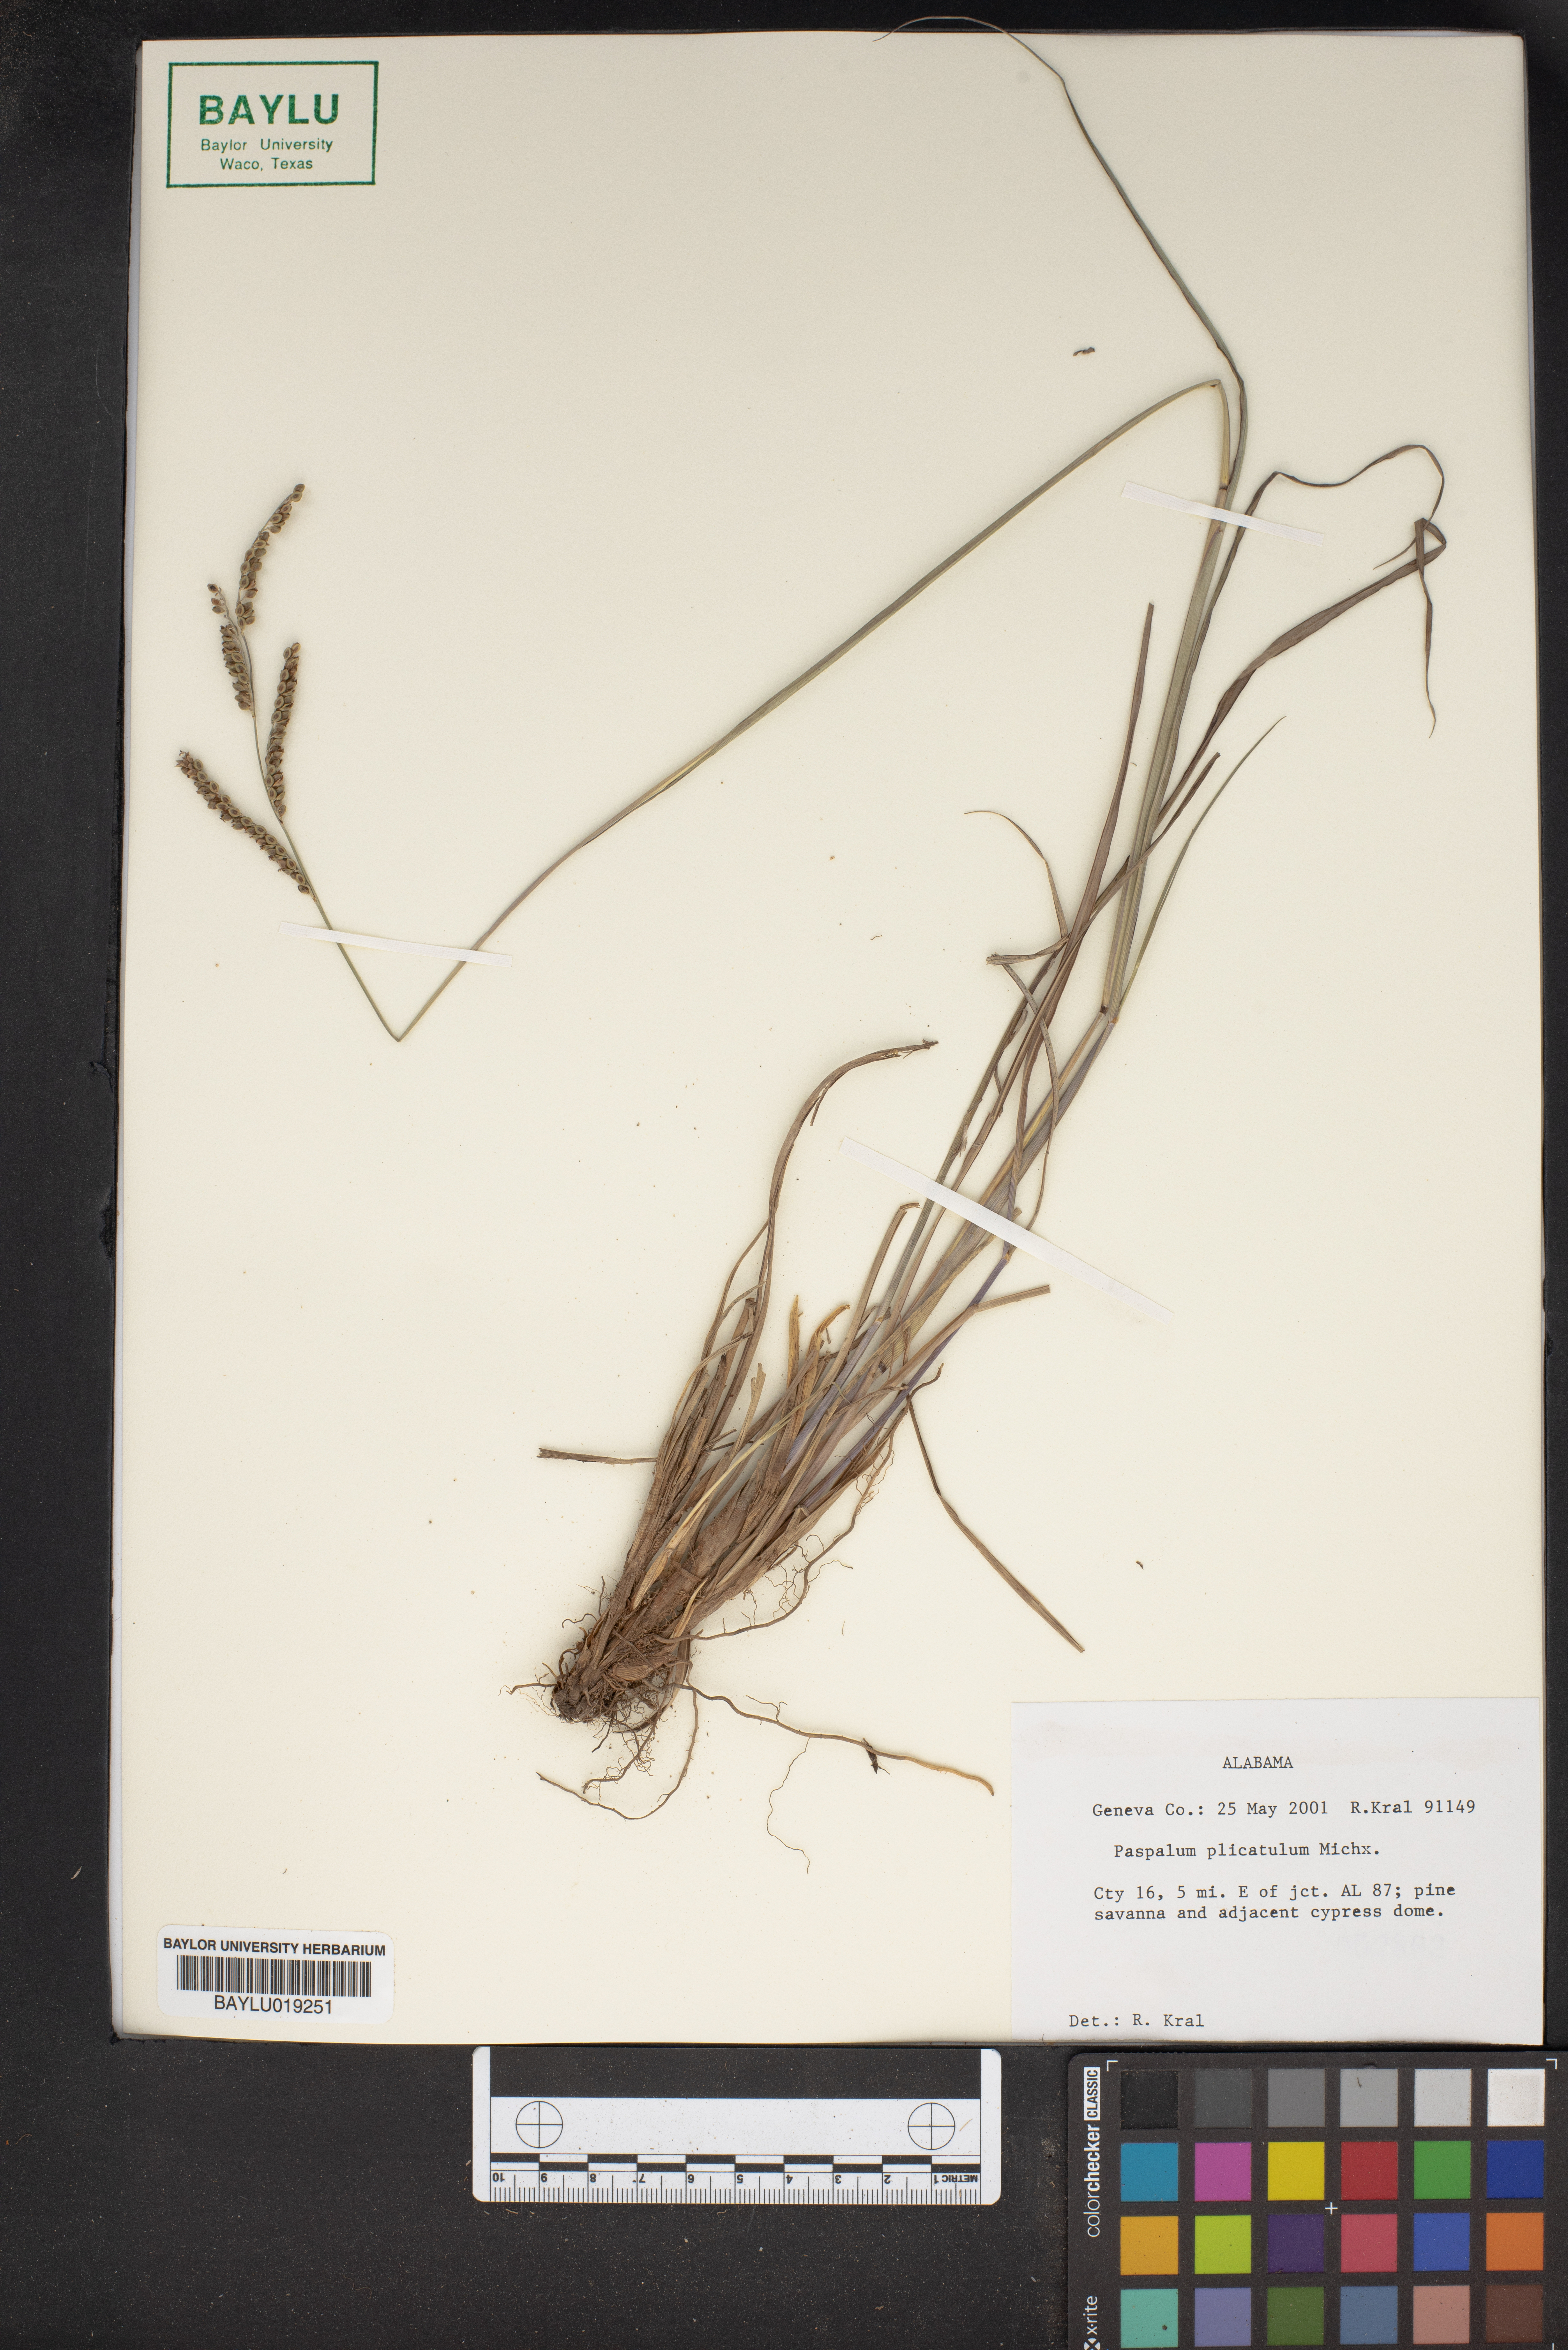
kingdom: Plantae
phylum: Tracheophyta
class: Liliopsida
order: Poales
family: Poaceae
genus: Paspalum
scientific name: Paspalum plicatulum
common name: Top paspalum
